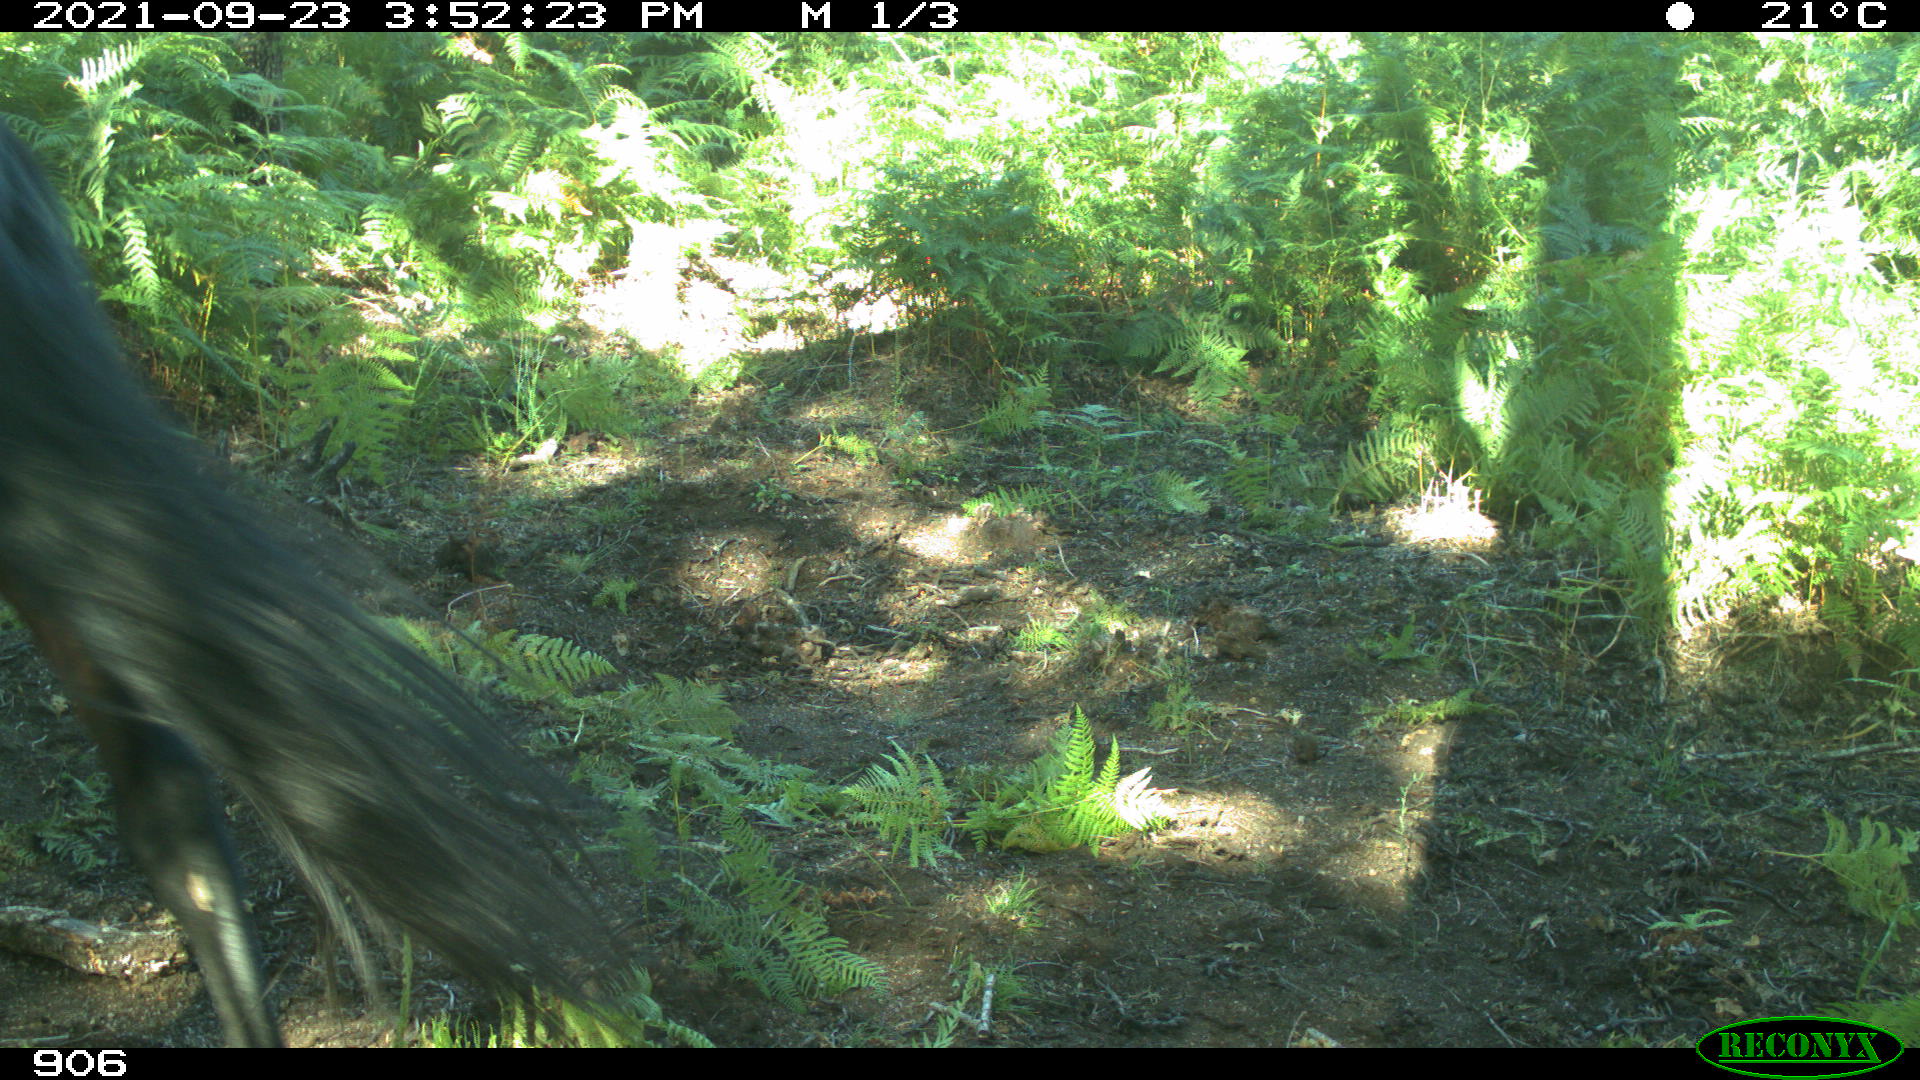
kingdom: Animalia
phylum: Chordata
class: Mammalia
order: Perissodactyla
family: Equidae
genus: Equus
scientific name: Equus caballus
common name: Horse
